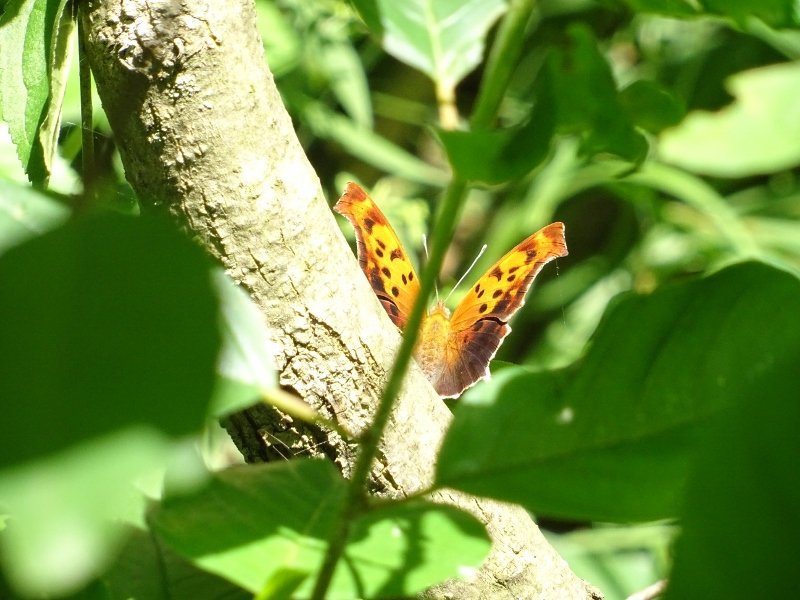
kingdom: Animalia
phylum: Arthropoda
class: Insecta
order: Lepidoptera
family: Nymphalidae
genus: Polygonia
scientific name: Polygonia interrogationis
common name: Question Mark
